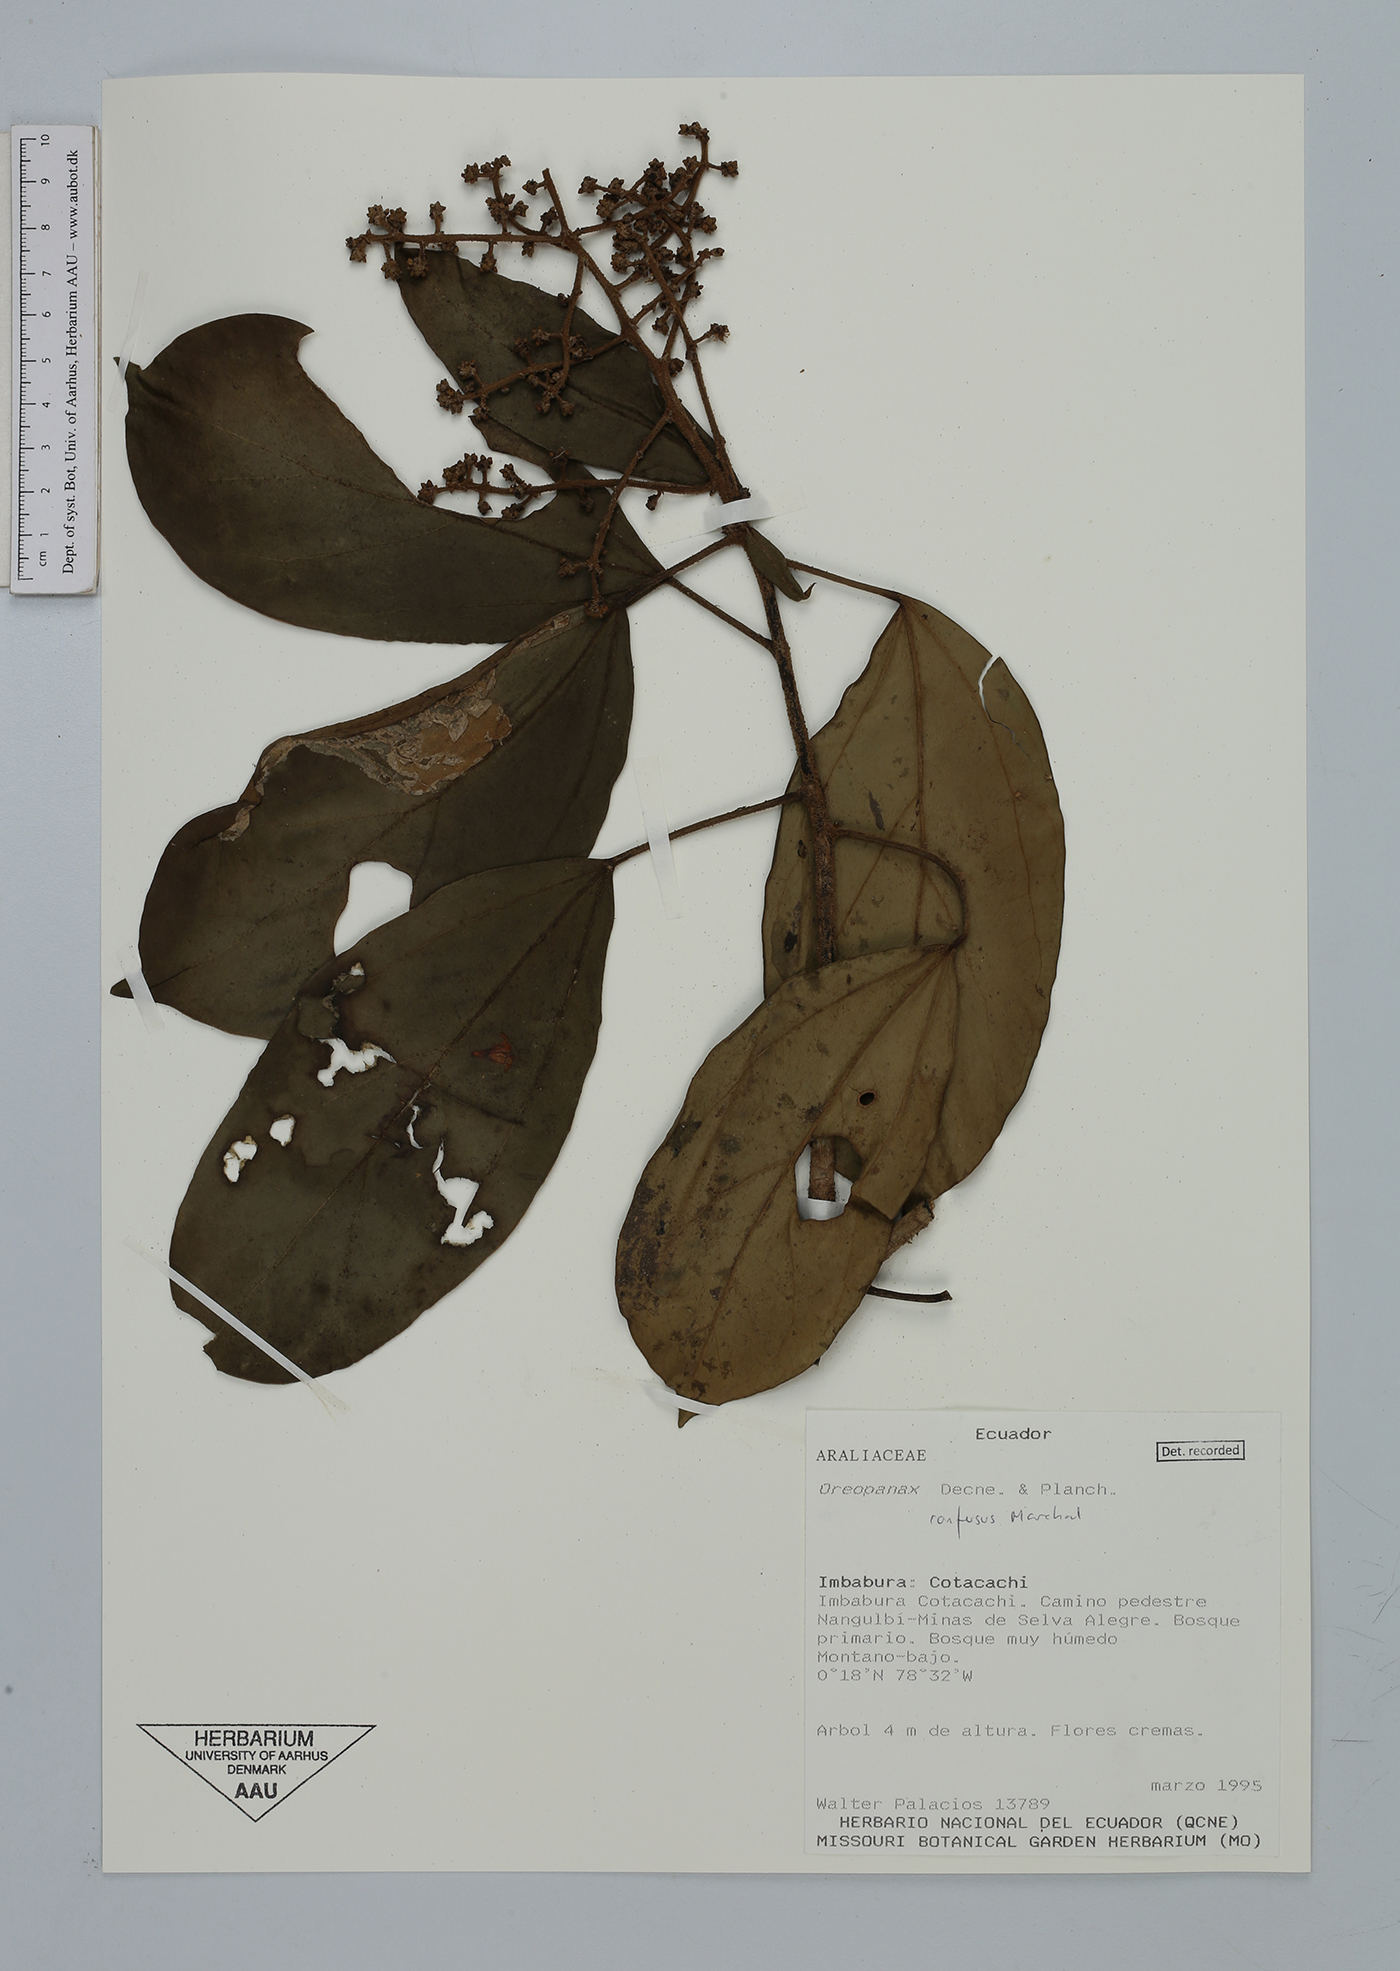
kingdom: Plantae
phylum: Tracheophyta
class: Magnoliopsida
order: Apiales
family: Araliaceae
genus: Oreopanax
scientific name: Oreopanax confusus
